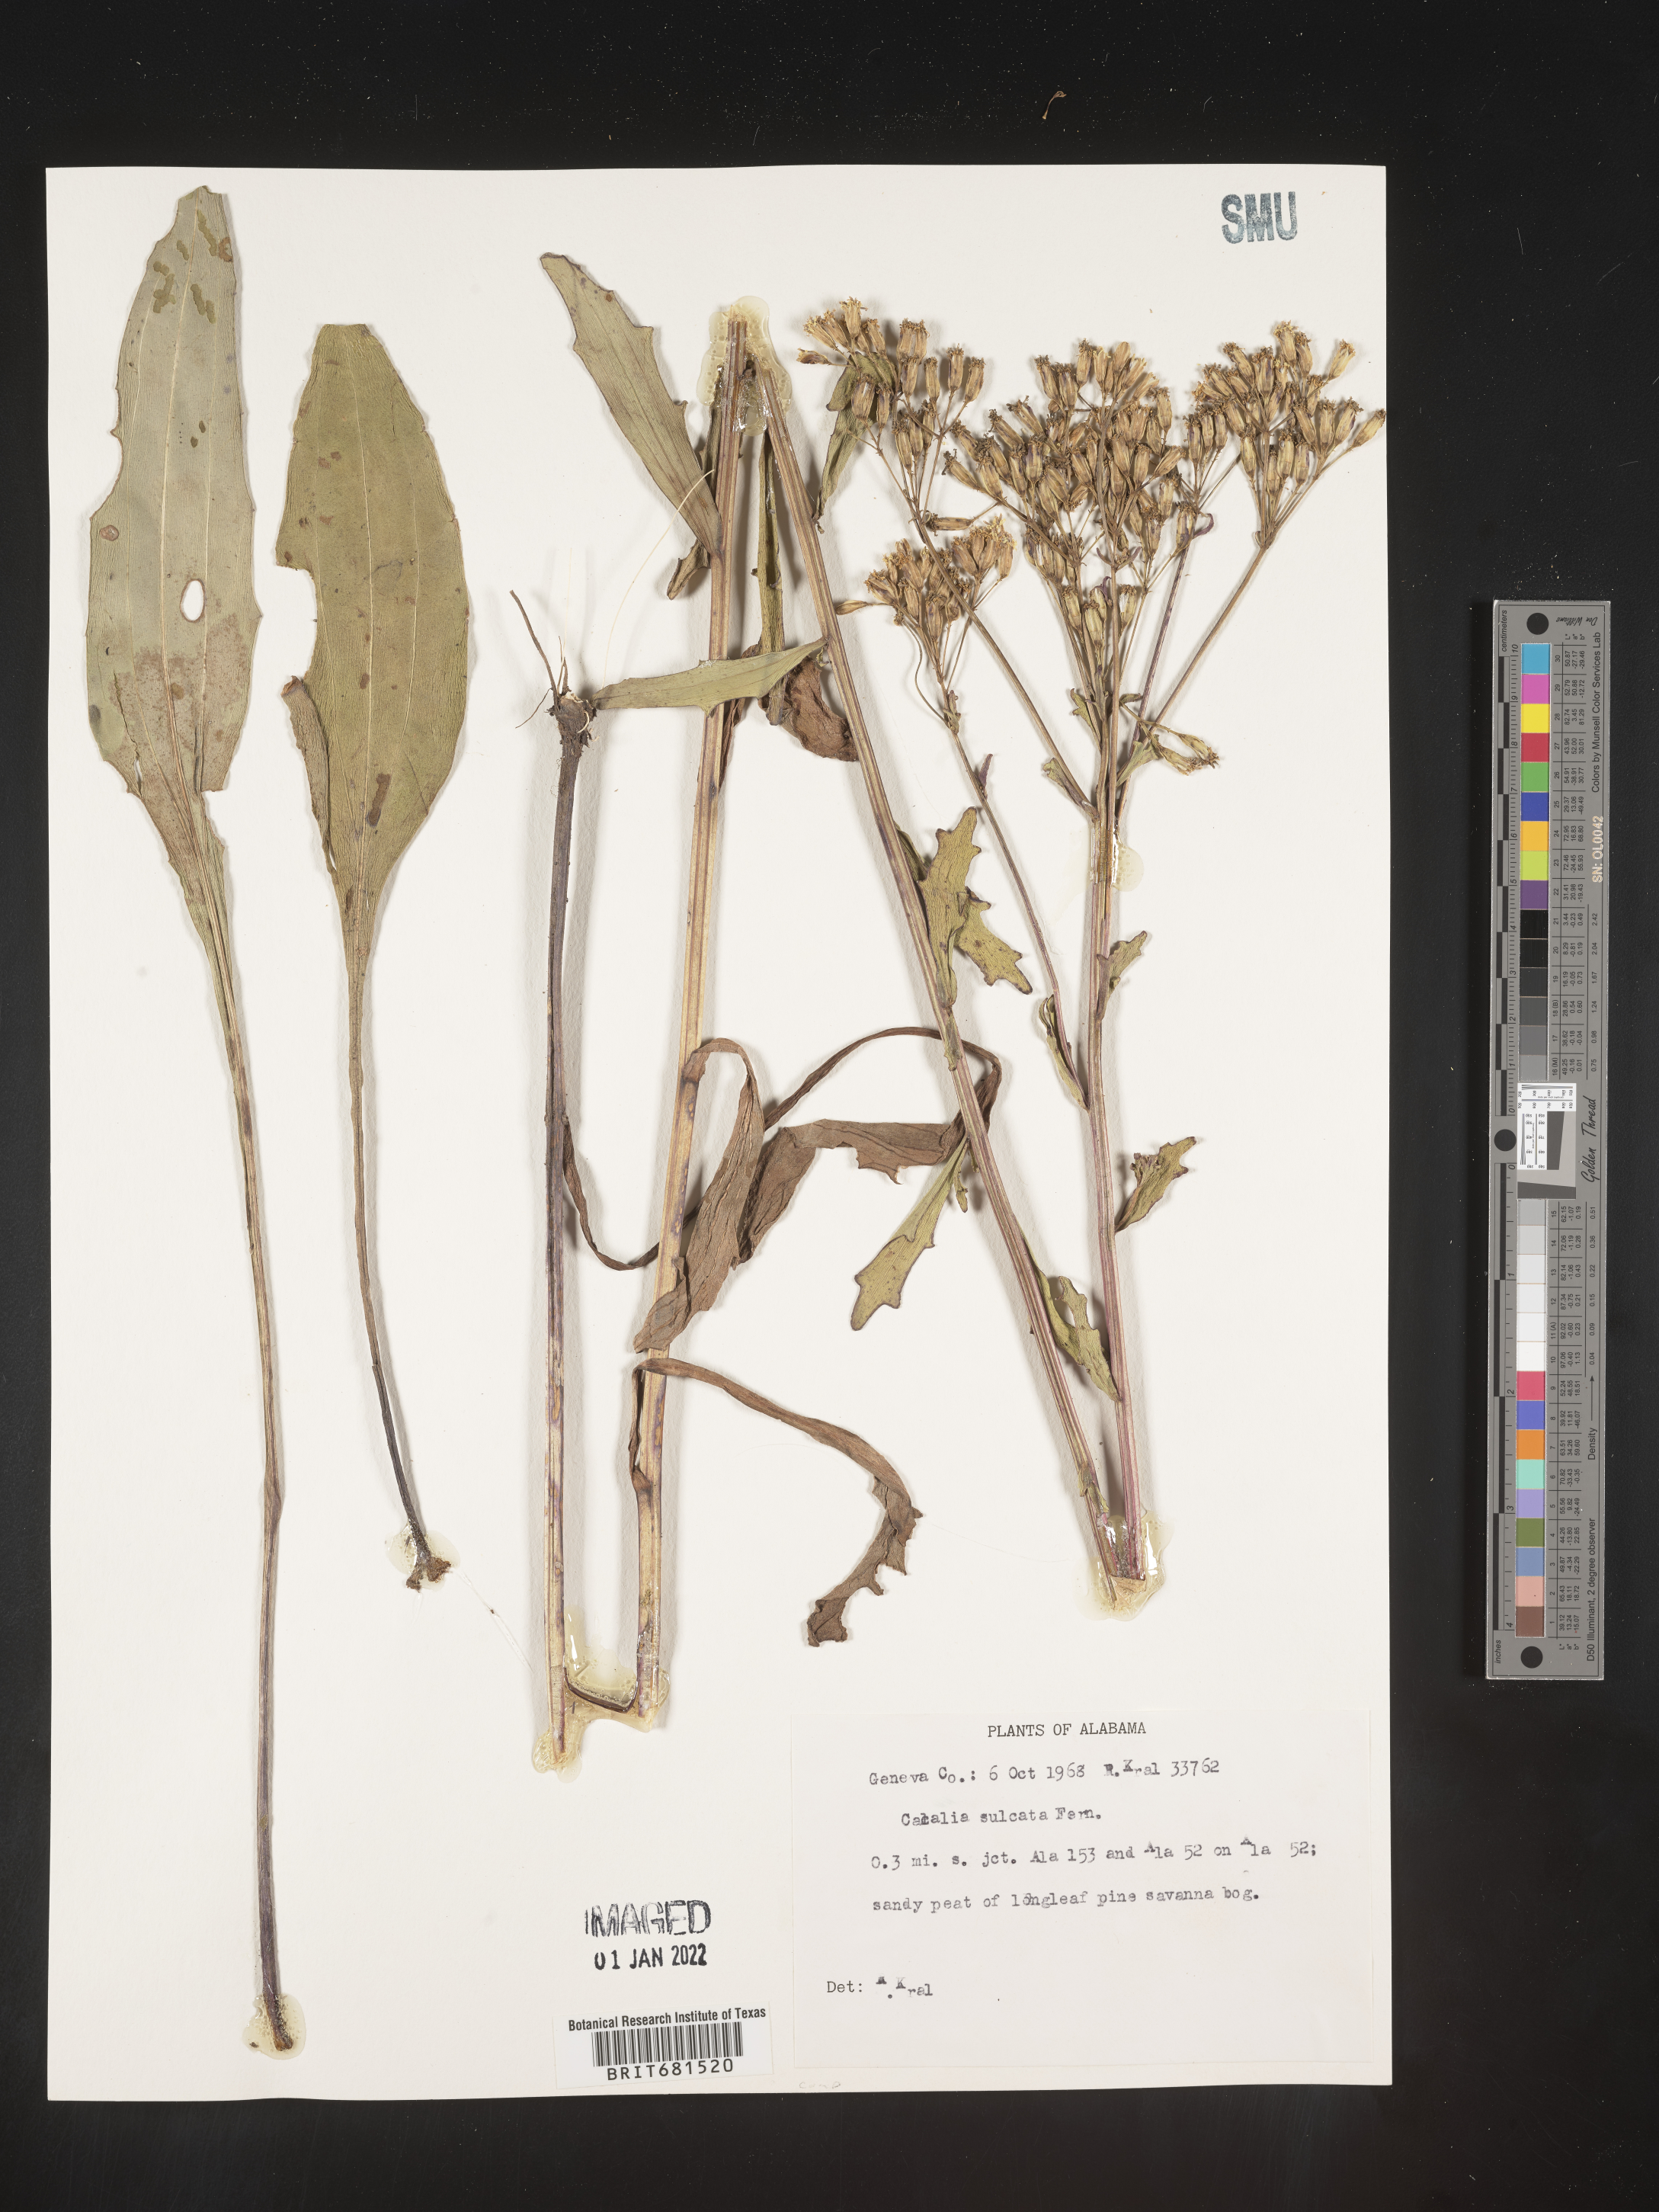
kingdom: Plantae
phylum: Tracheophyta
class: Magnoliopsida
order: Asterales
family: Asteraceae
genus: Arnoglossum
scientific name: Arnoglossum sulcatum
